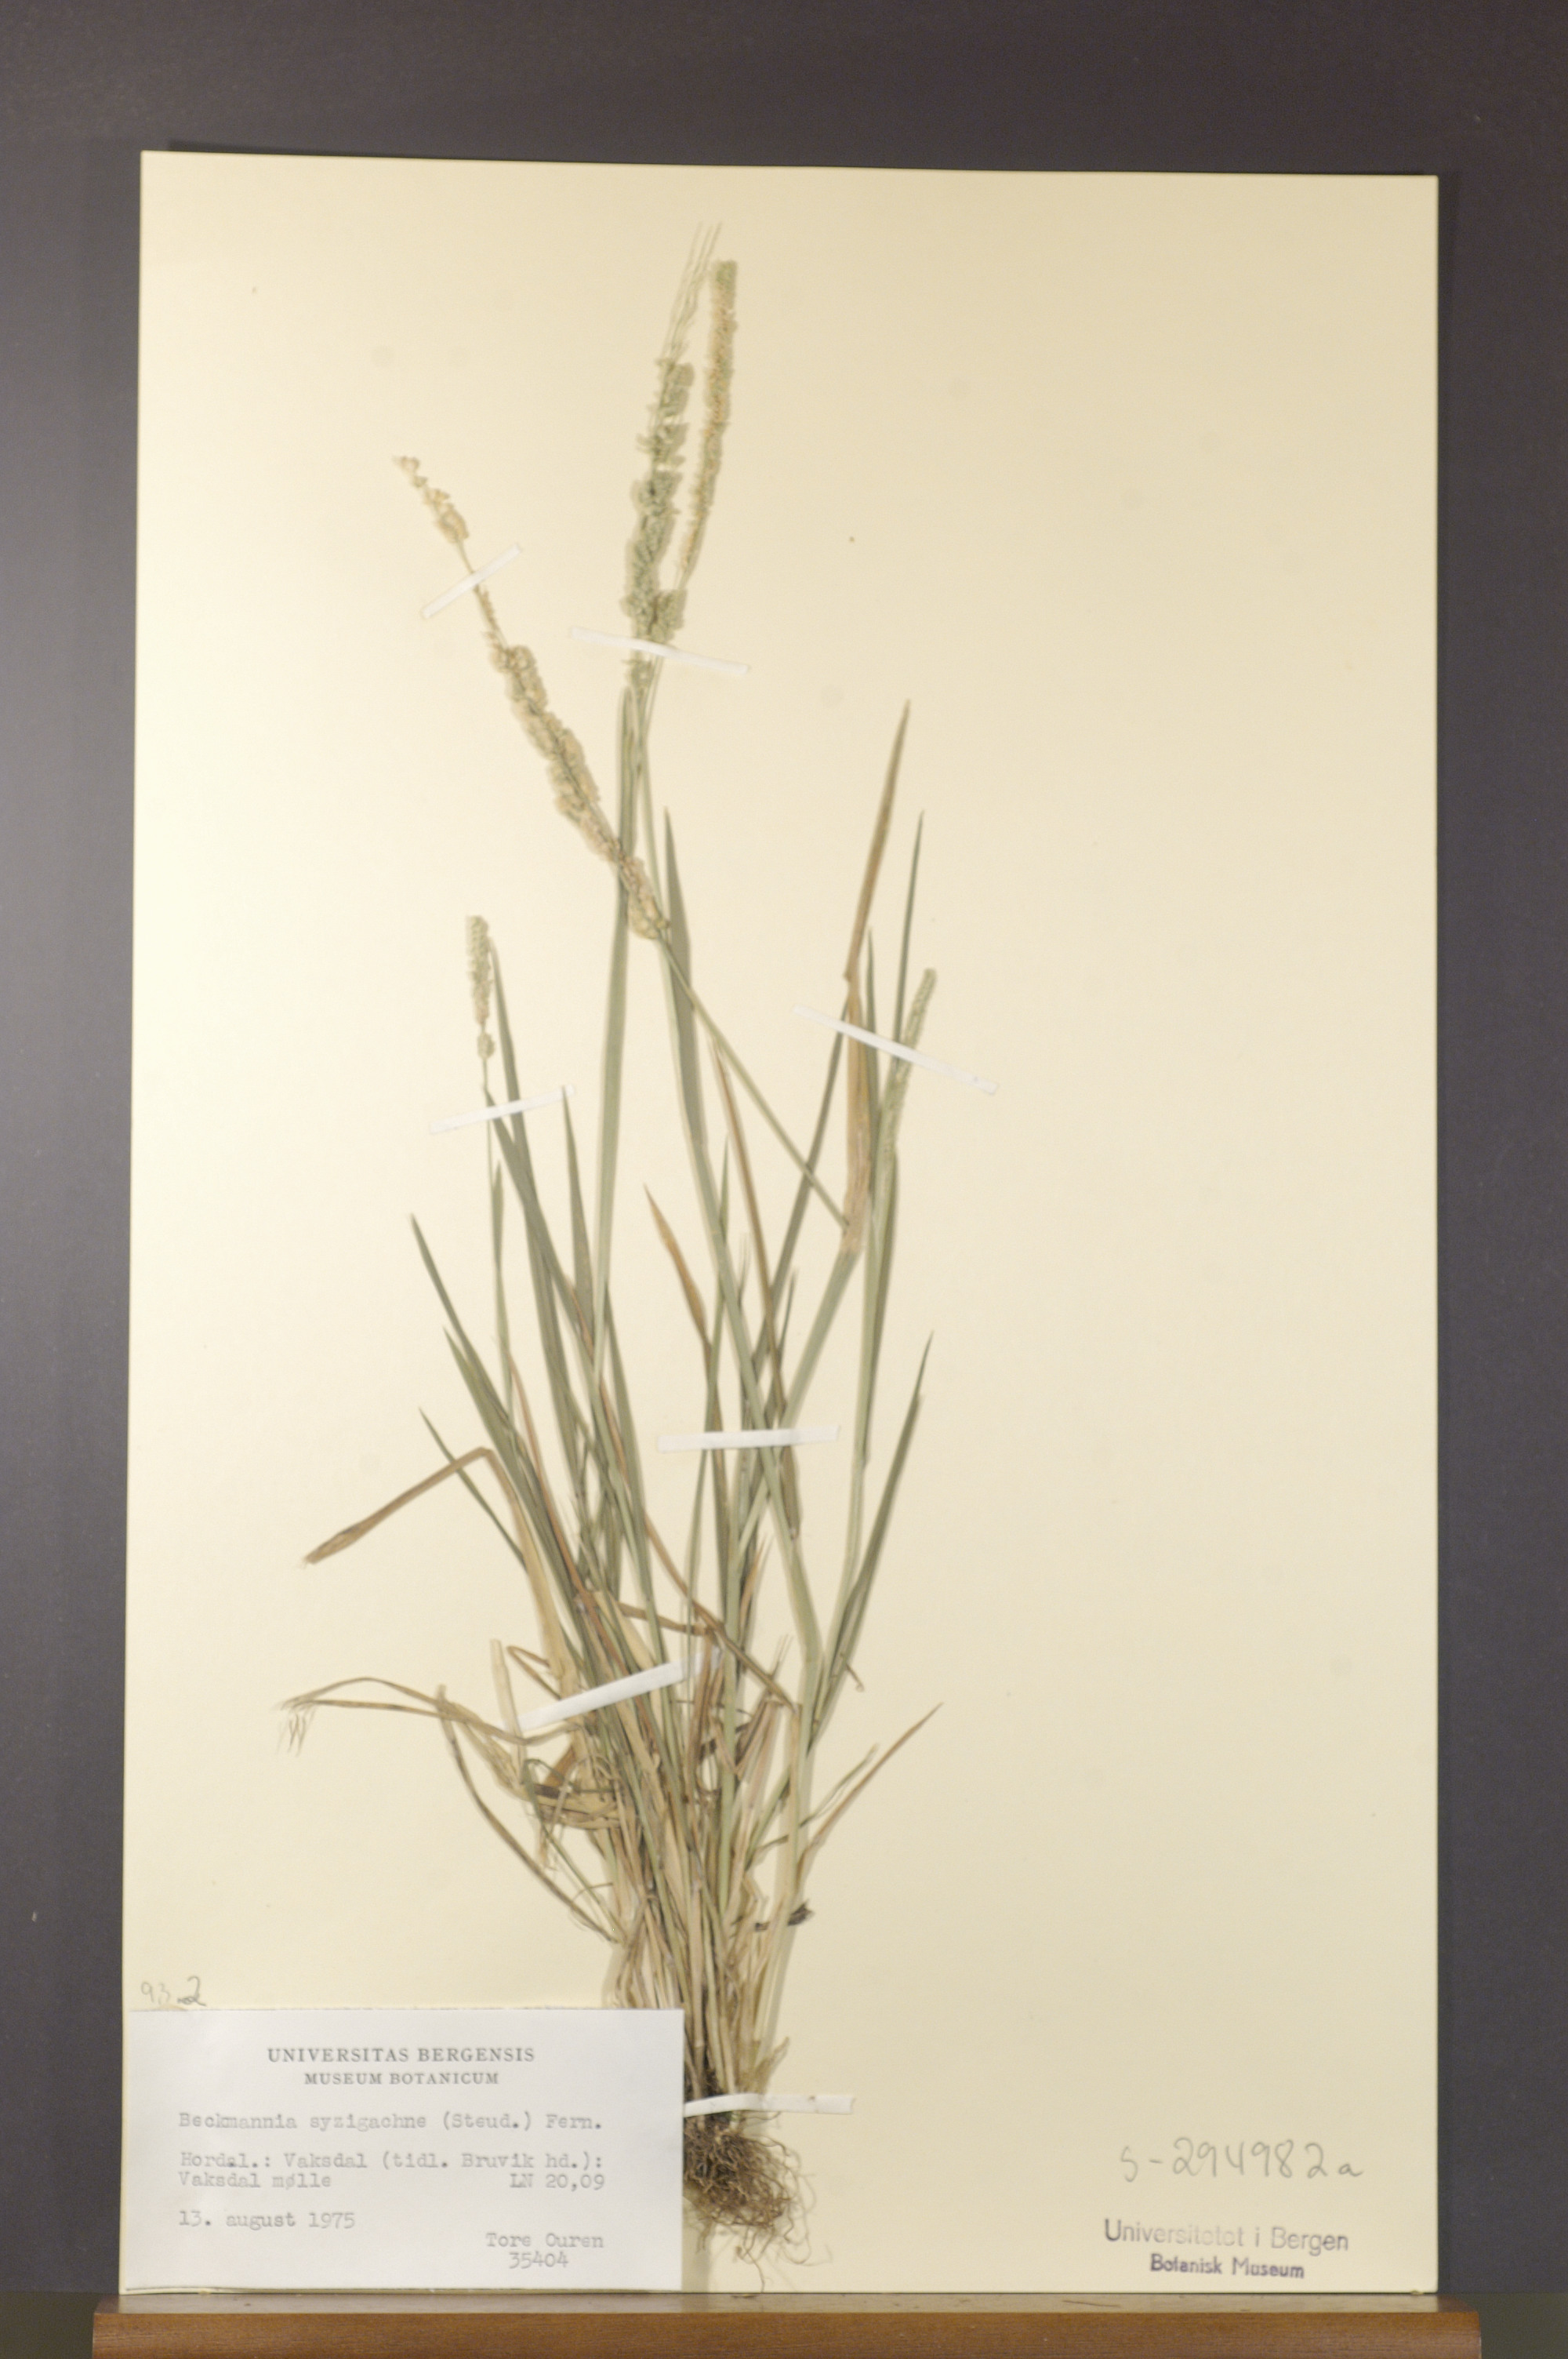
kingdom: Plantae
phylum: Tracheophyta
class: Liliopsida
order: Poales
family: Poaceae
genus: Beckmannia
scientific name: Beckmannia syzigachne
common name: American slough-grass
